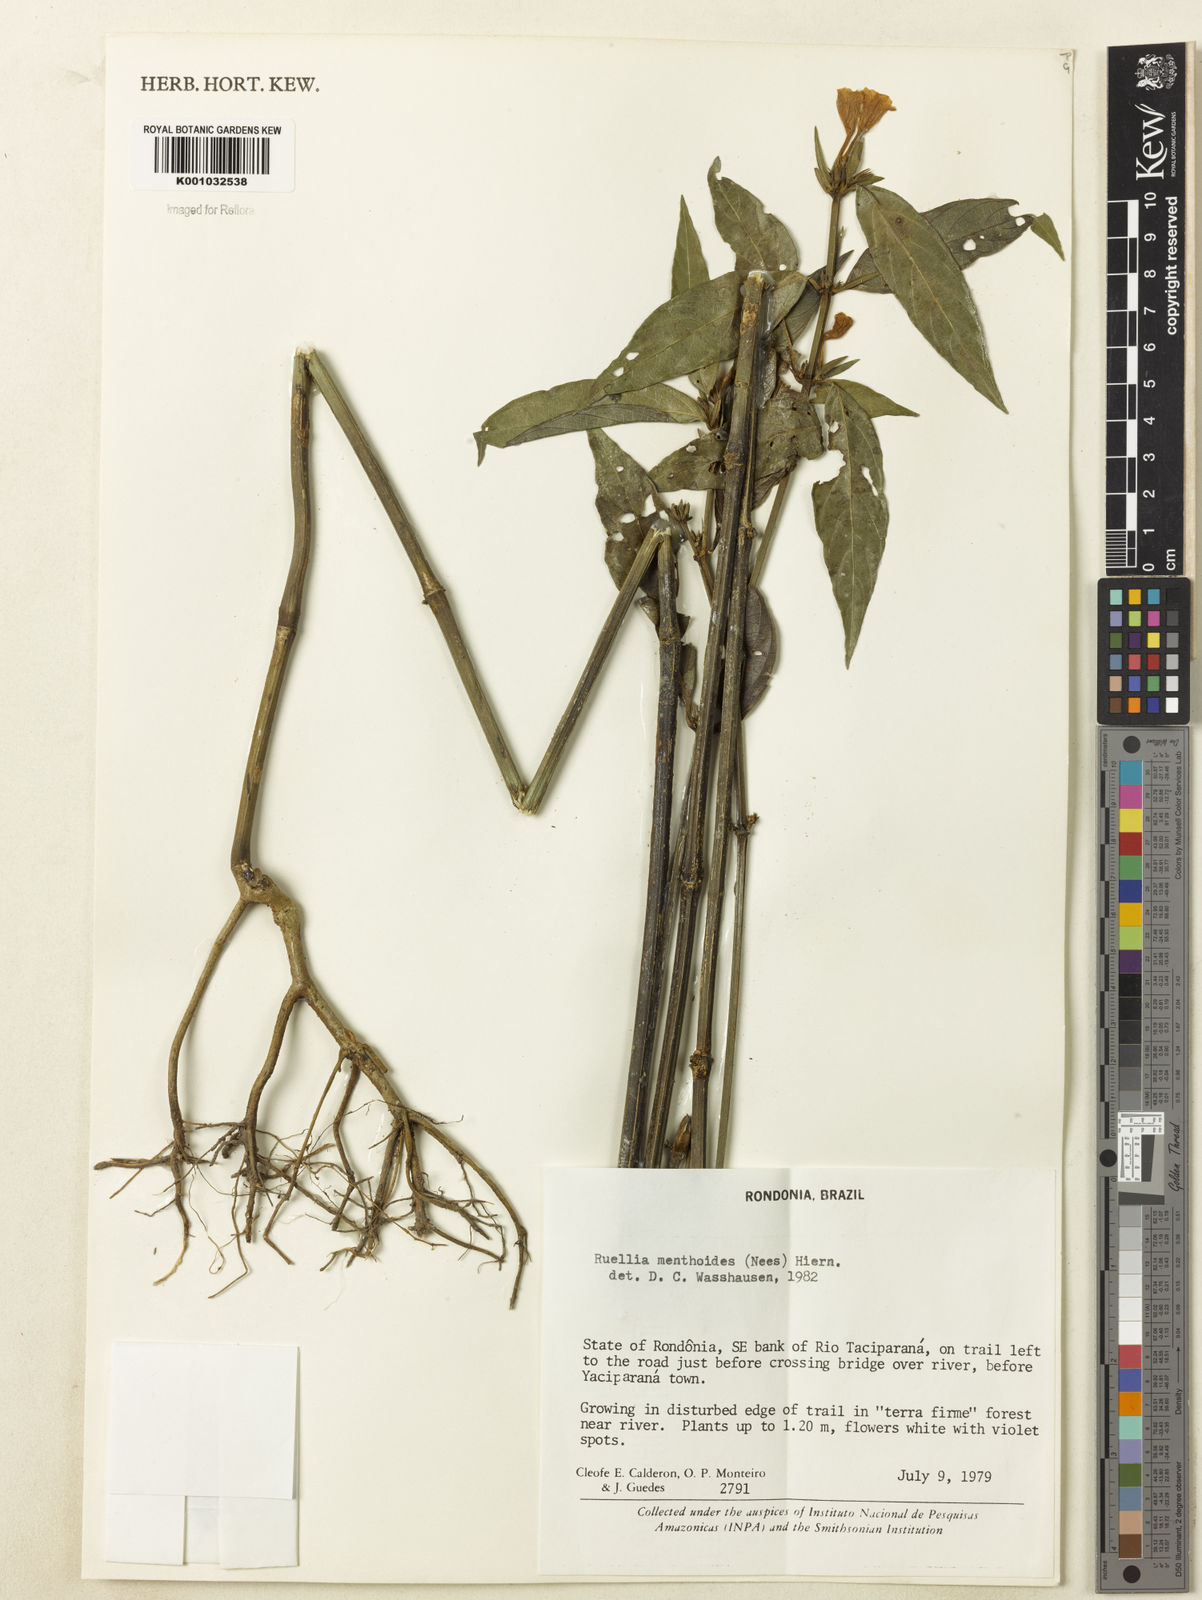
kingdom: Plantae
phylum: Tracheophyta
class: Magnoliopsida
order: Lamiales
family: Acanthaceae
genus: Ruellia
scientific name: Ruellia menthoides
